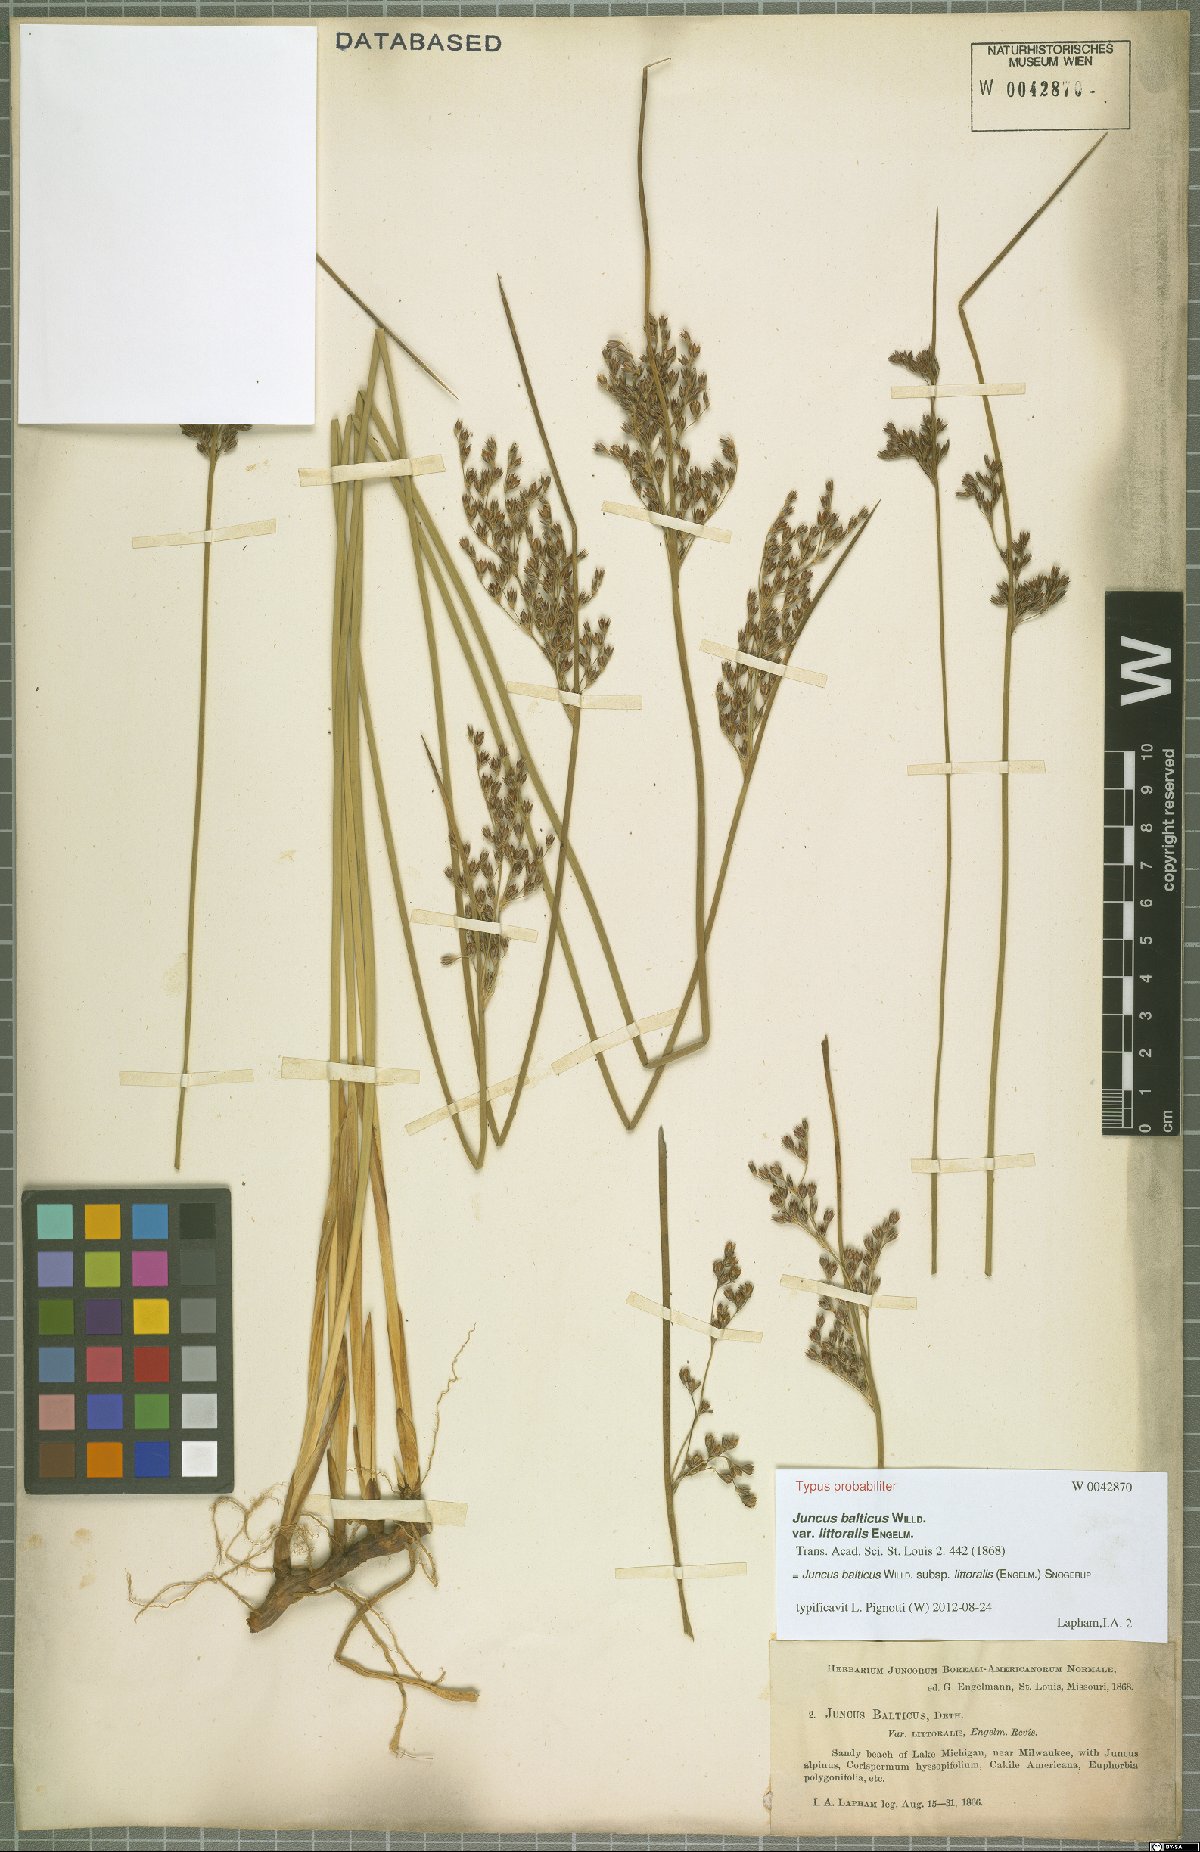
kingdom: Plantae
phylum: Tracheophyta
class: Liliopsida
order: Poales
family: Juncaceae
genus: Juncus
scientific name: Juncus balticus
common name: Baltic rush
